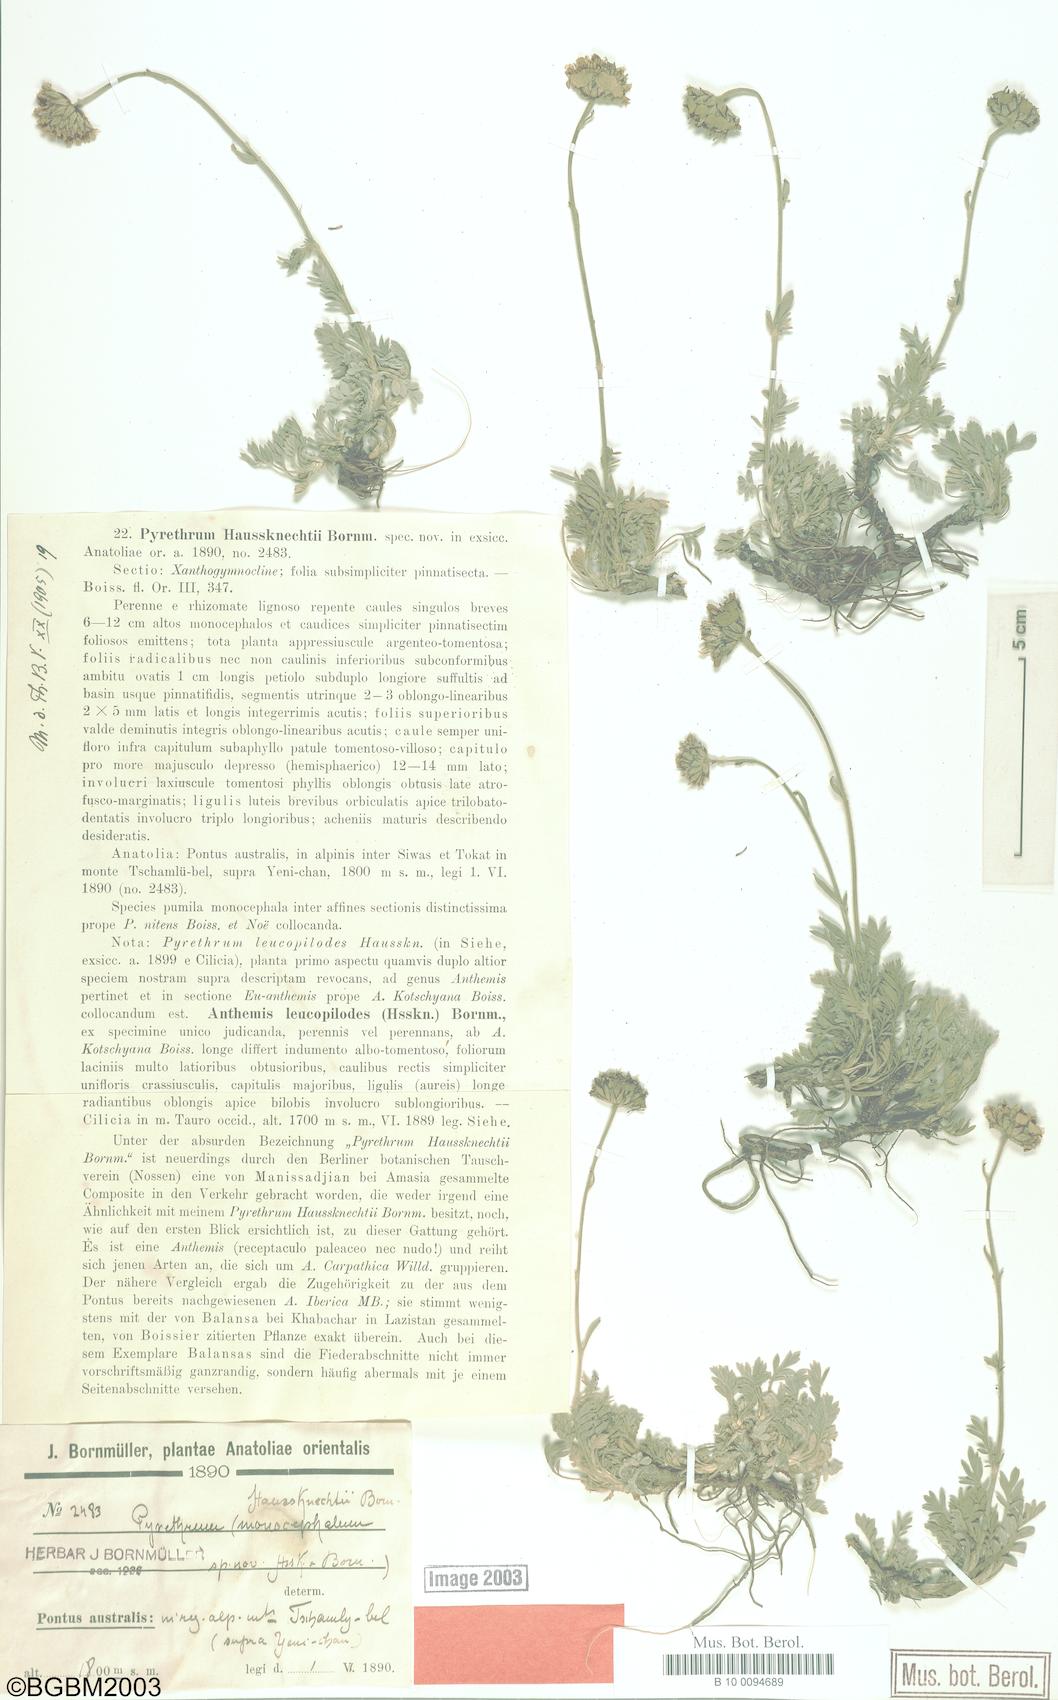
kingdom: Plantae
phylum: Tracheophyta
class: Magnoliopsida
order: Asterales
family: Asteraceae
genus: Tanacetum
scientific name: Tanacetum haussknechtii
